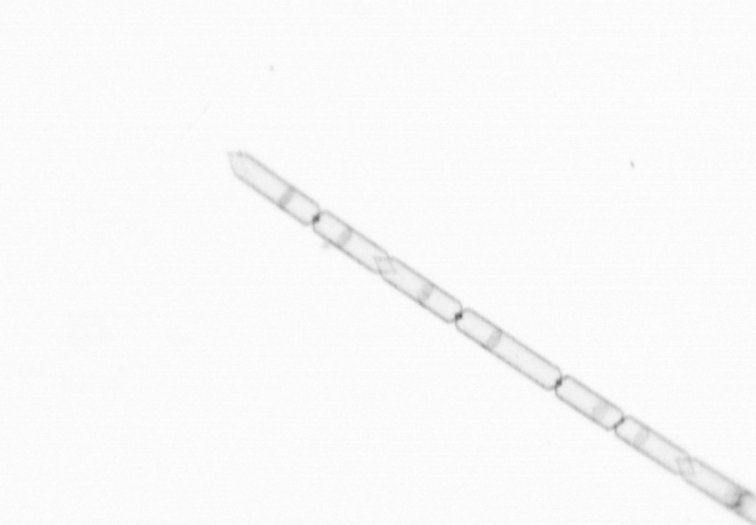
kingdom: Chromista
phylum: Ochrophyta
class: Bacillariophyceae
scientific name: Bacillariophyceae
